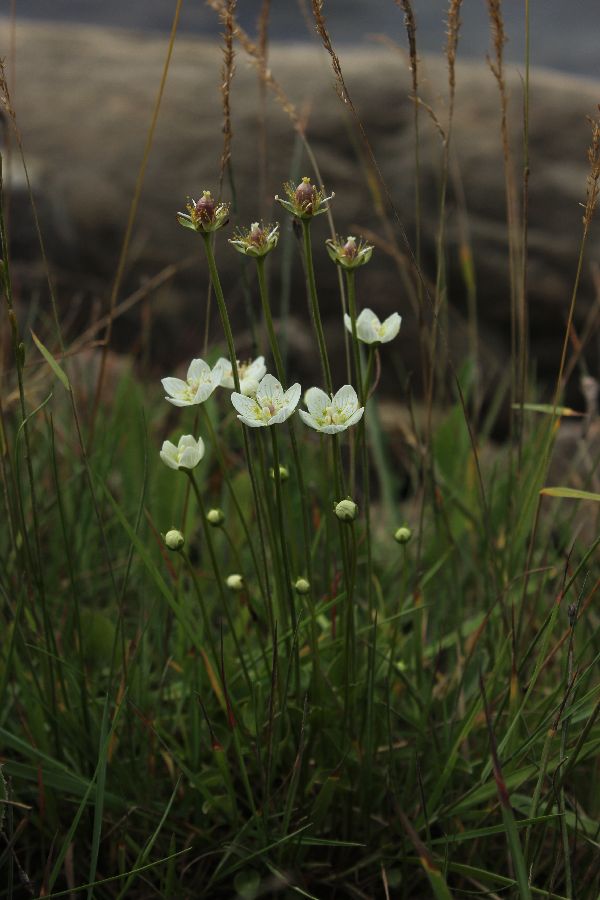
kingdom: Plantae
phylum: Tracheophyta
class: Magnoliopsida
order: Celastrales
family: Parnassiaceae
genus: Parnassia
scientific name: Parnassia palustris
